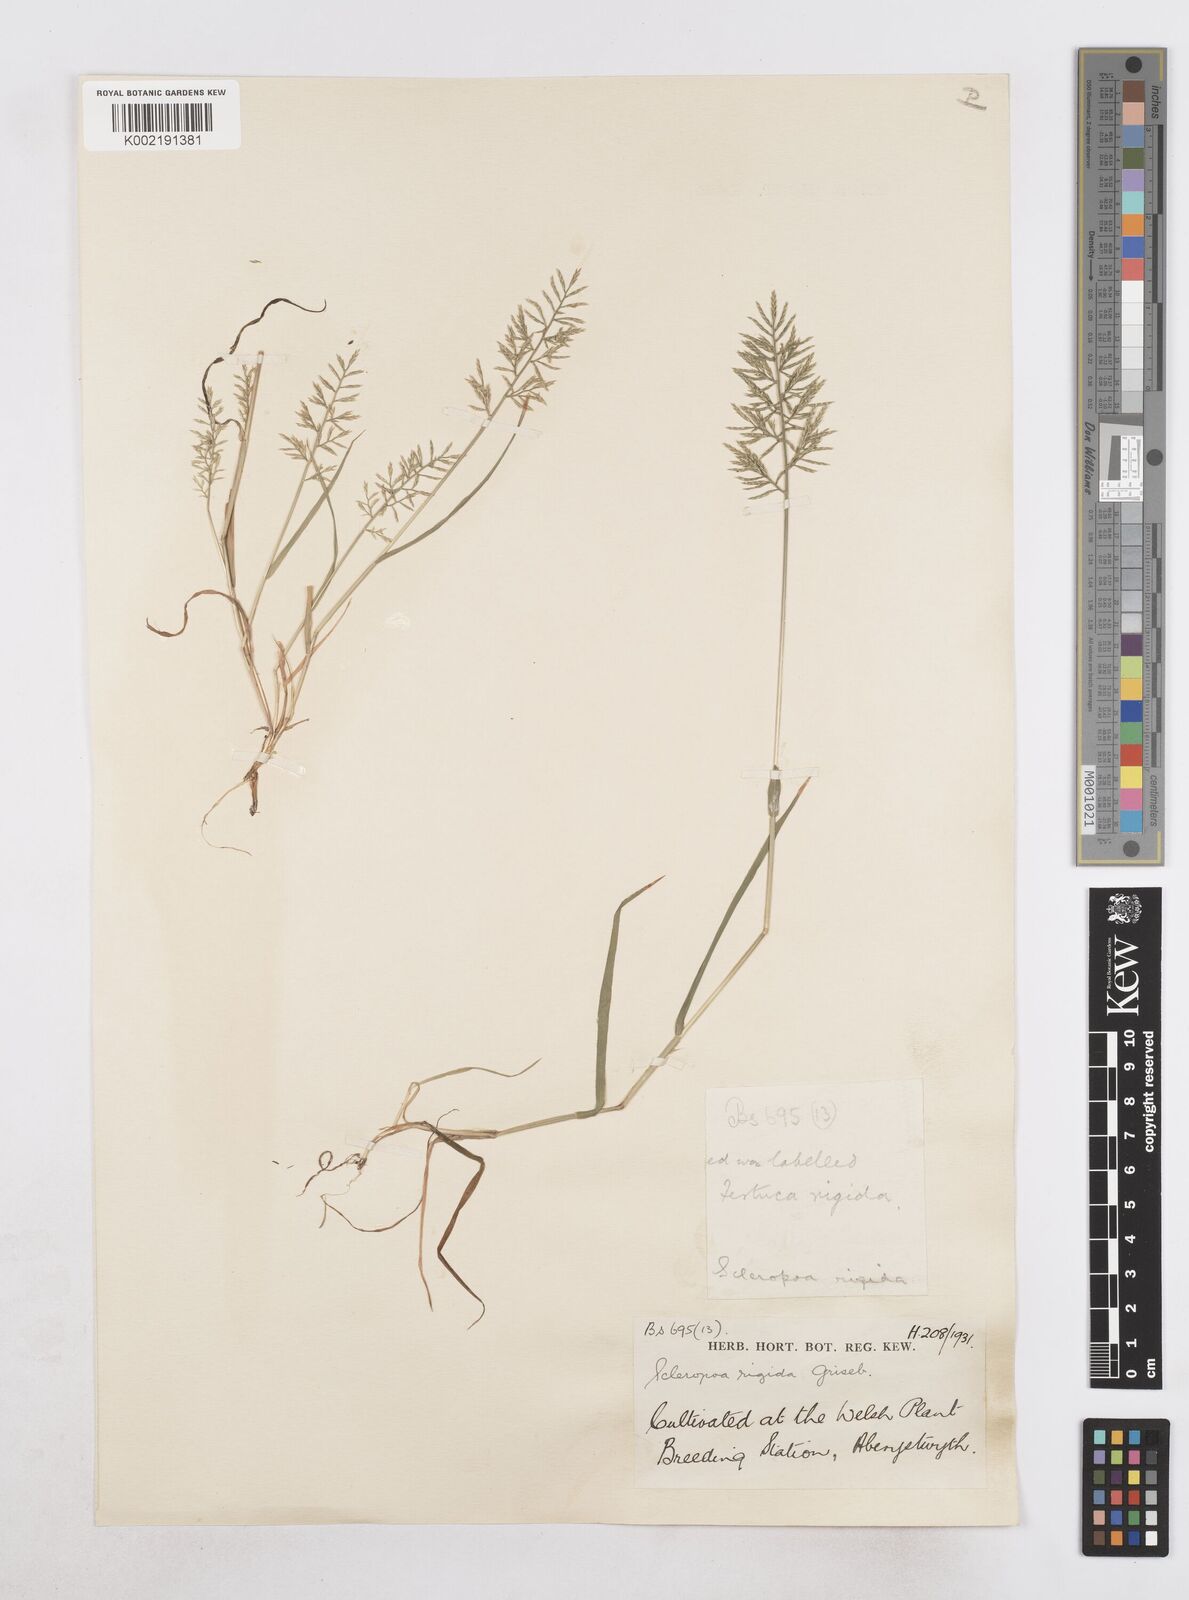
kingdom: Plantae
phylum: Tracheophyta
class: Liliopsida
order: Poales
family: Poaceae
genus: Catapodium
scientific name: Catapodium rigidum
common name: Fern-grass
